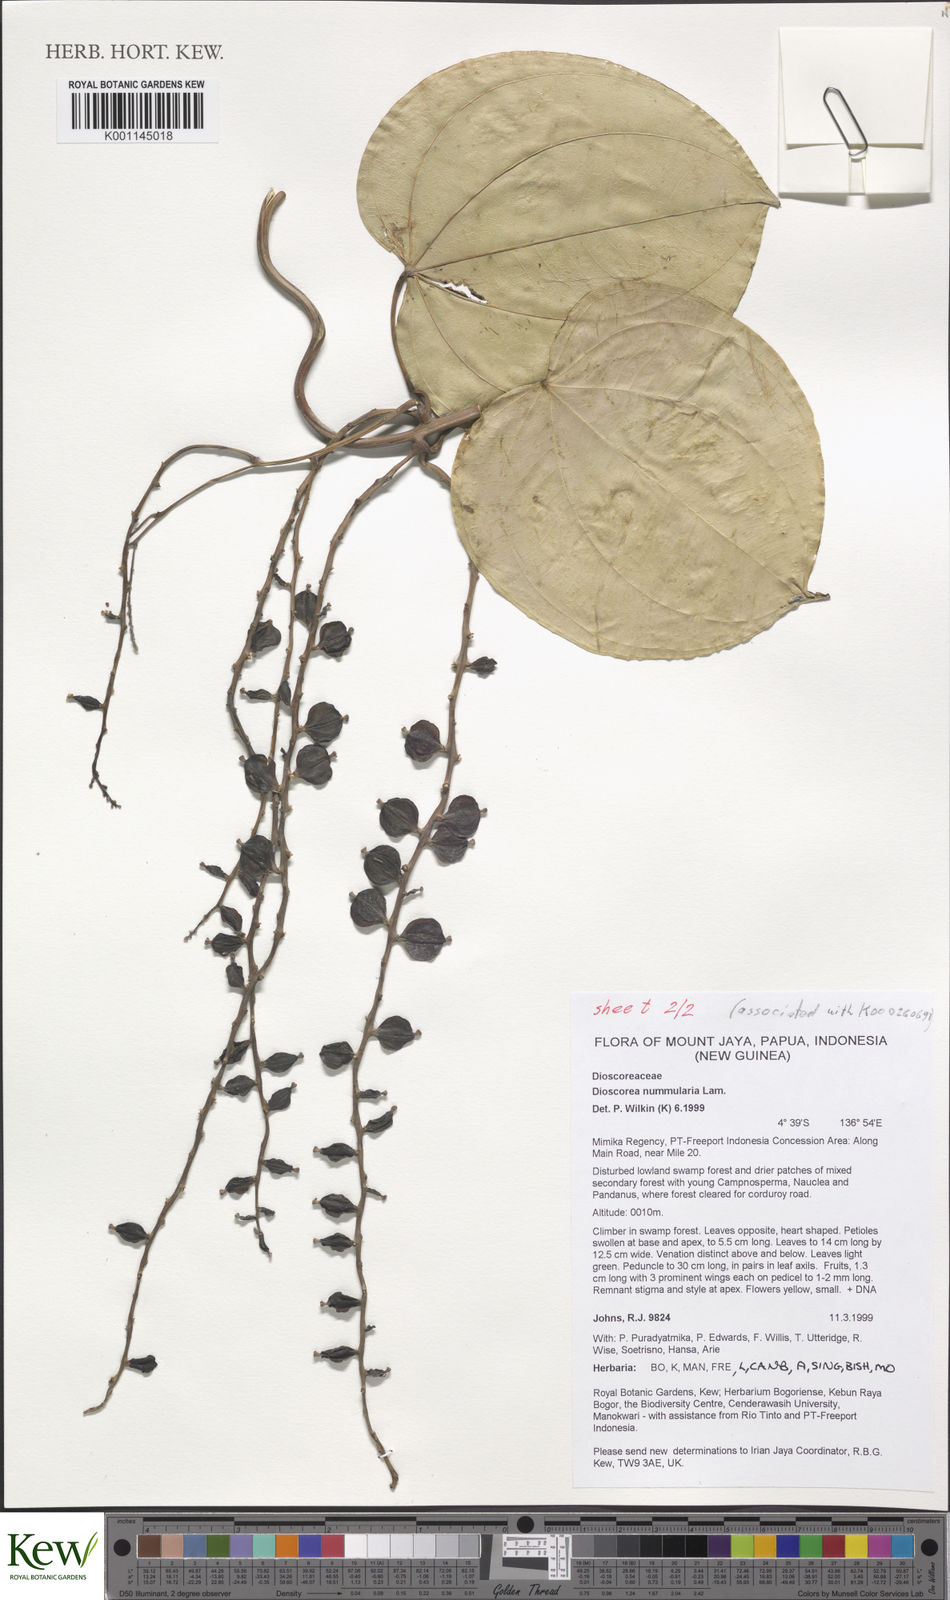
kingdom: Plantae
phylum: Tracheophyta
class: Liliopsida
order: Dioscoreales
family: Dioscoreaceae
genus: Dioscorea
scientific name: Dioscorea nummularia
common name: Pacific yam
